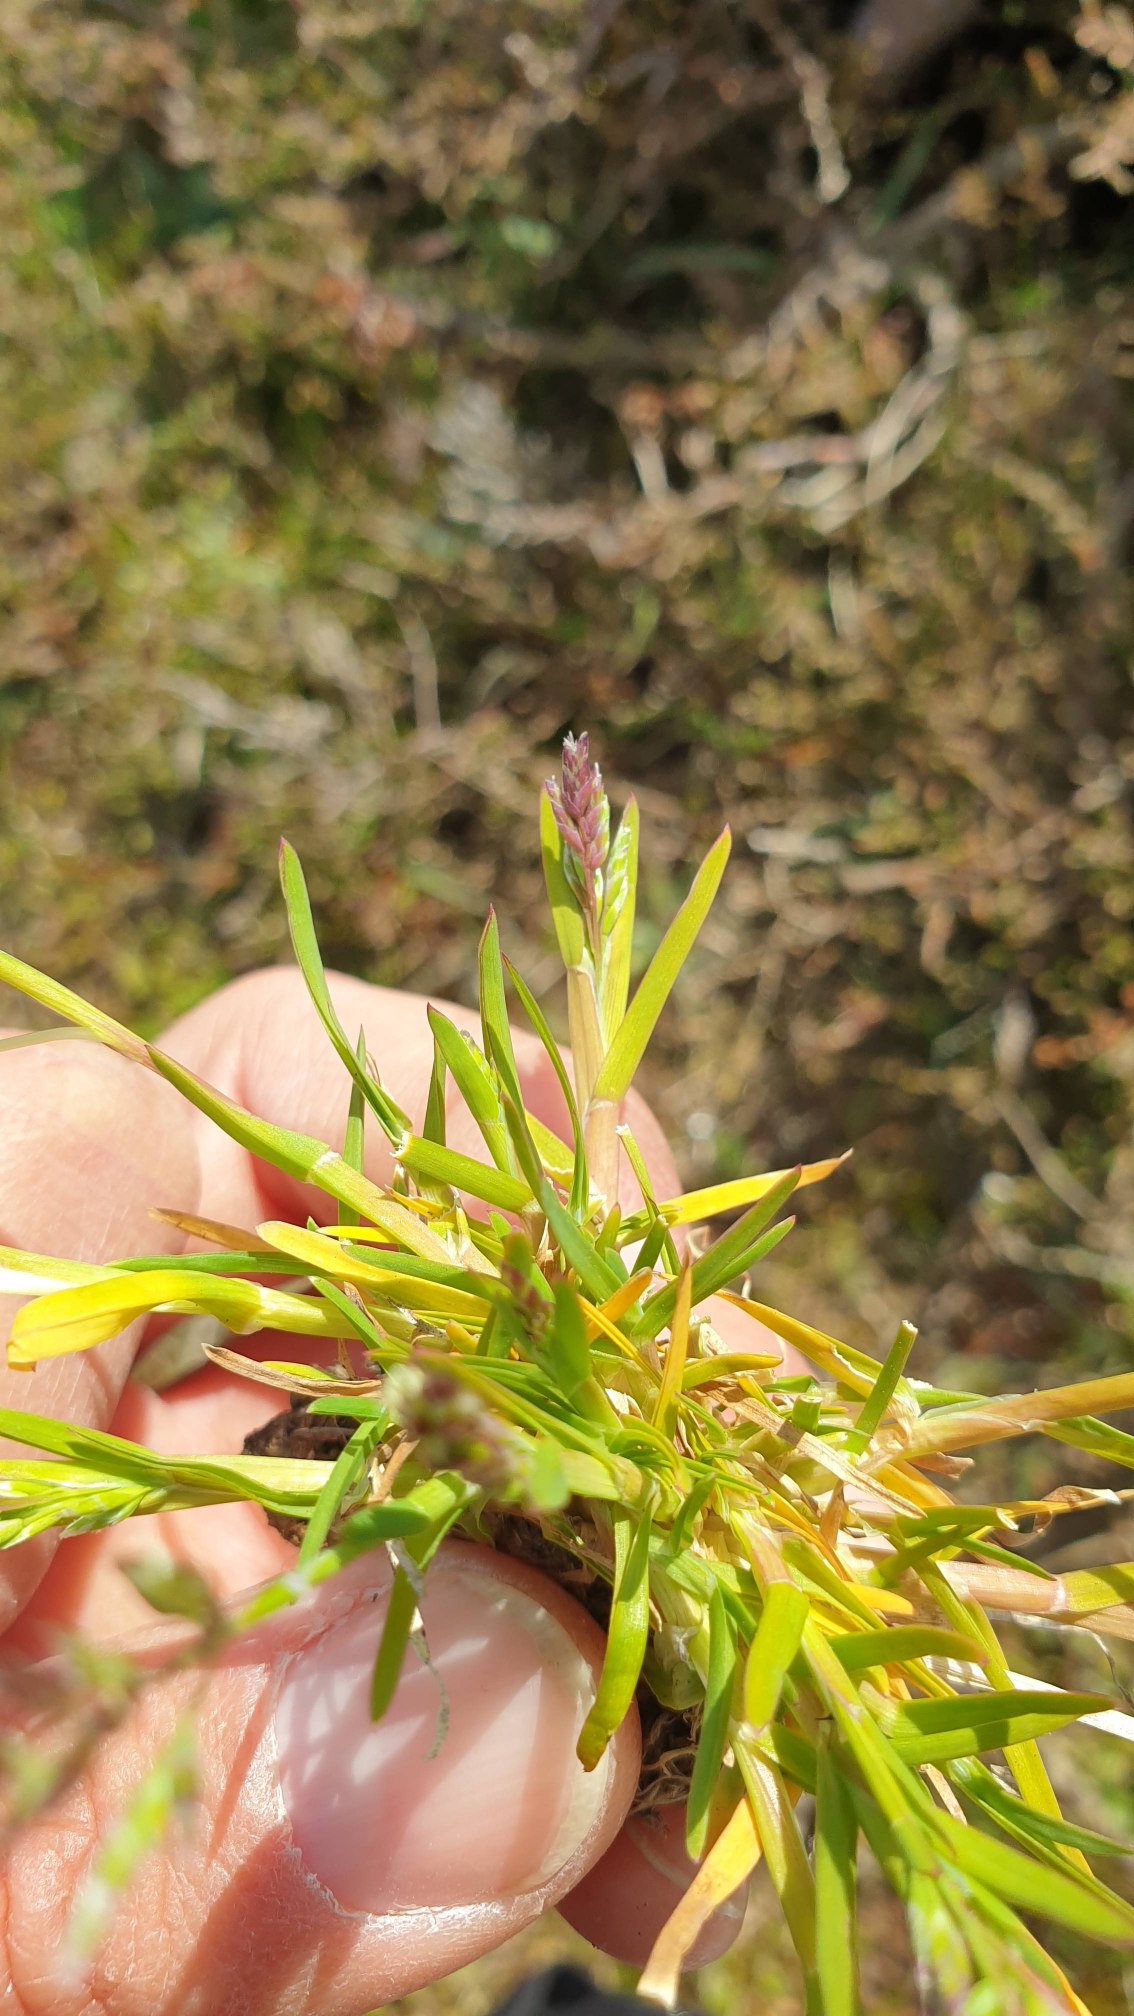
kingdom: Plantae
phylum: Tracheophyta
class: Liliopsida
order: Poales
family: Poaceae
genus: Poa
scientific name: Poa annua
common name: Enårig rapgræs
